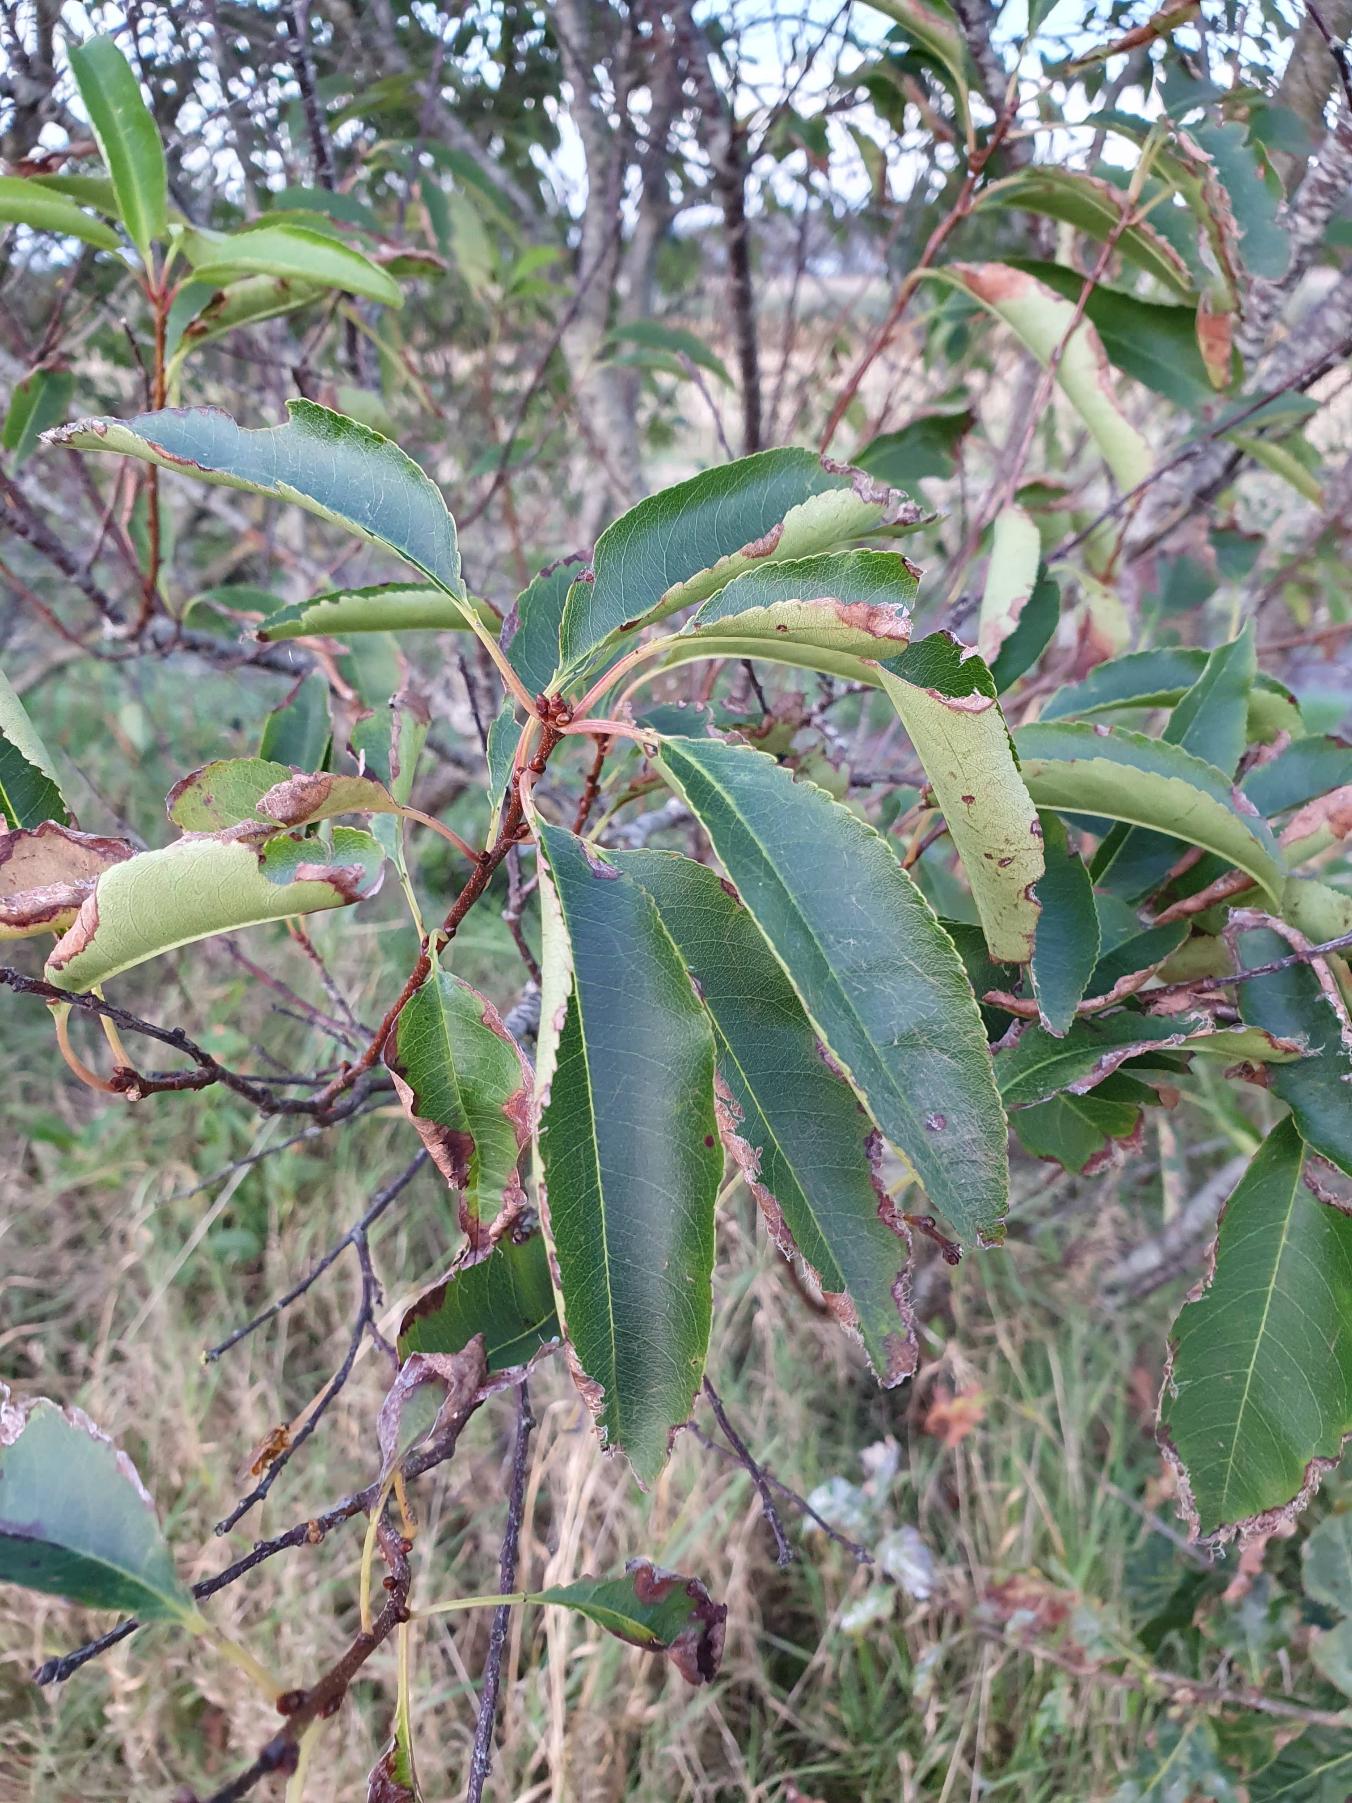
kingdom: Plantae
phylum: Tracheophyta
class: Magnoliopsida
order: Rosales
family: Rosaceae
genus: Prunus
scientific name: Prunus serotina
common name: Glansbladet hæg
